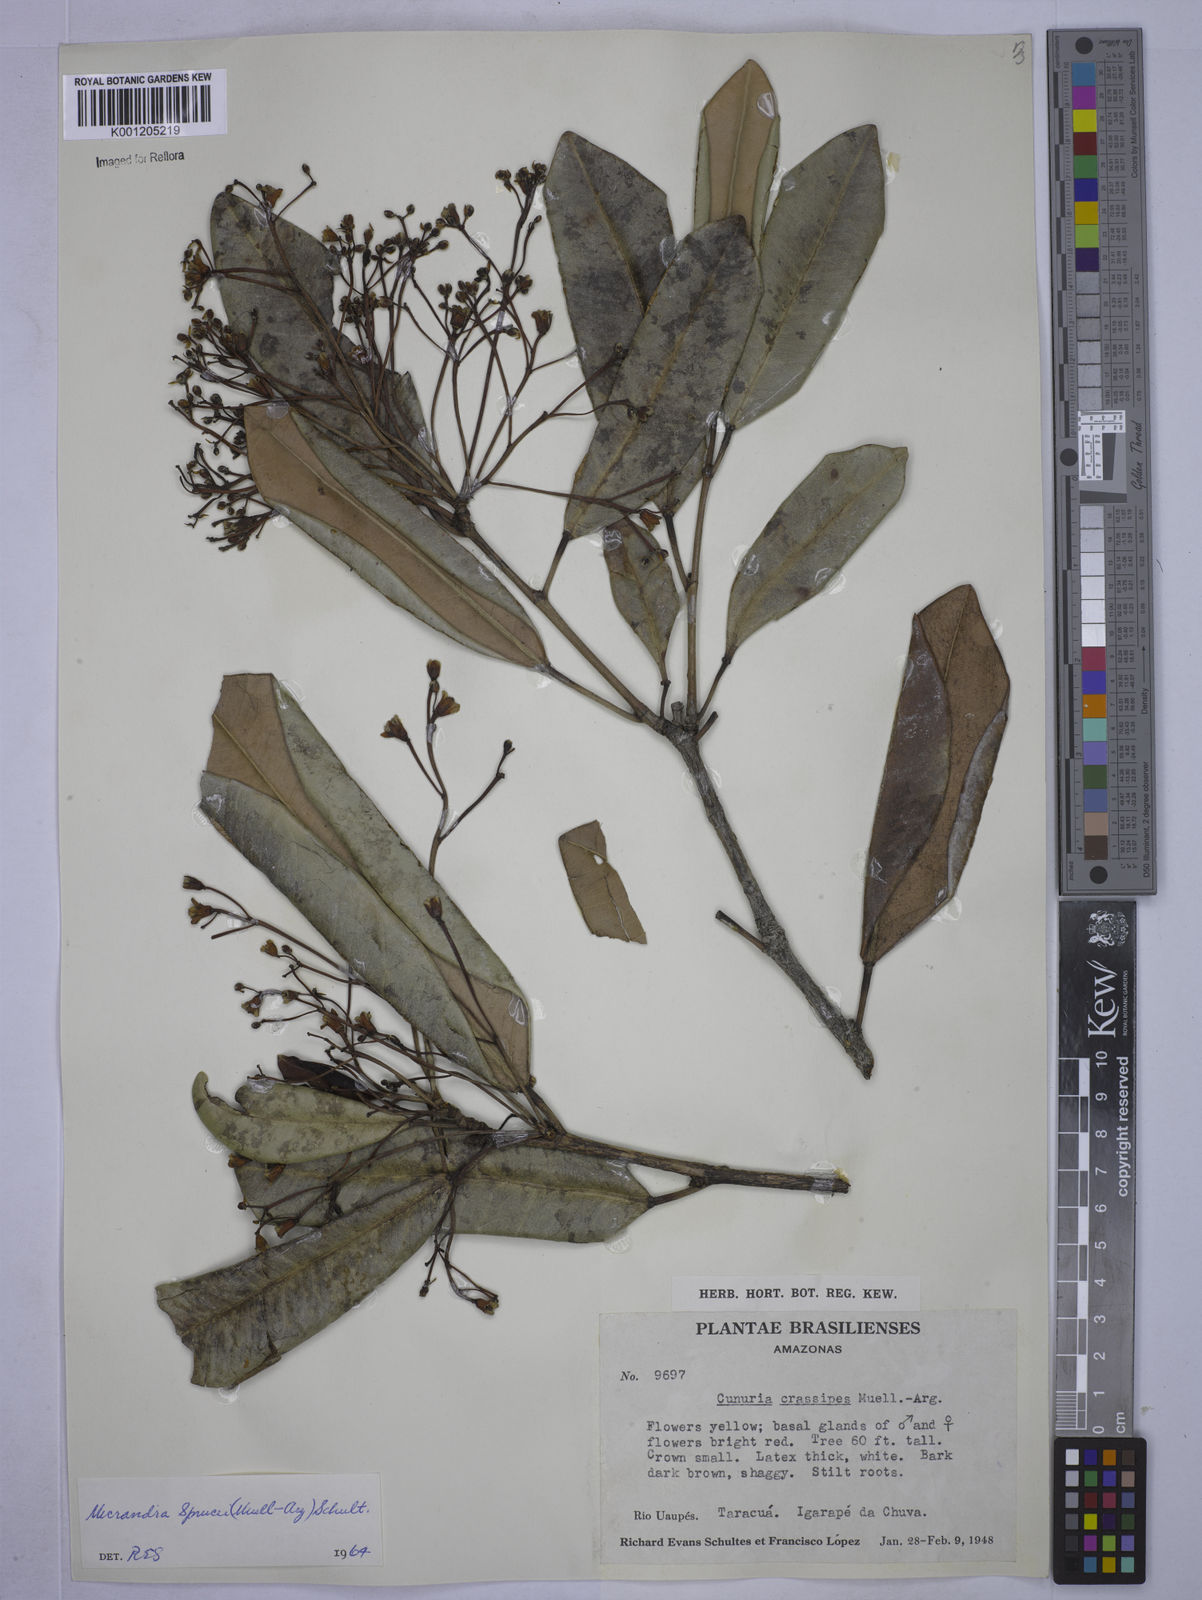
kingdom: Plantae
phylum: Tracheophyta
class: Magnoliopsida
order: Malpighiales
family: Euphorbiaceae
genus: Micrandra
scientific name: Micrandra
